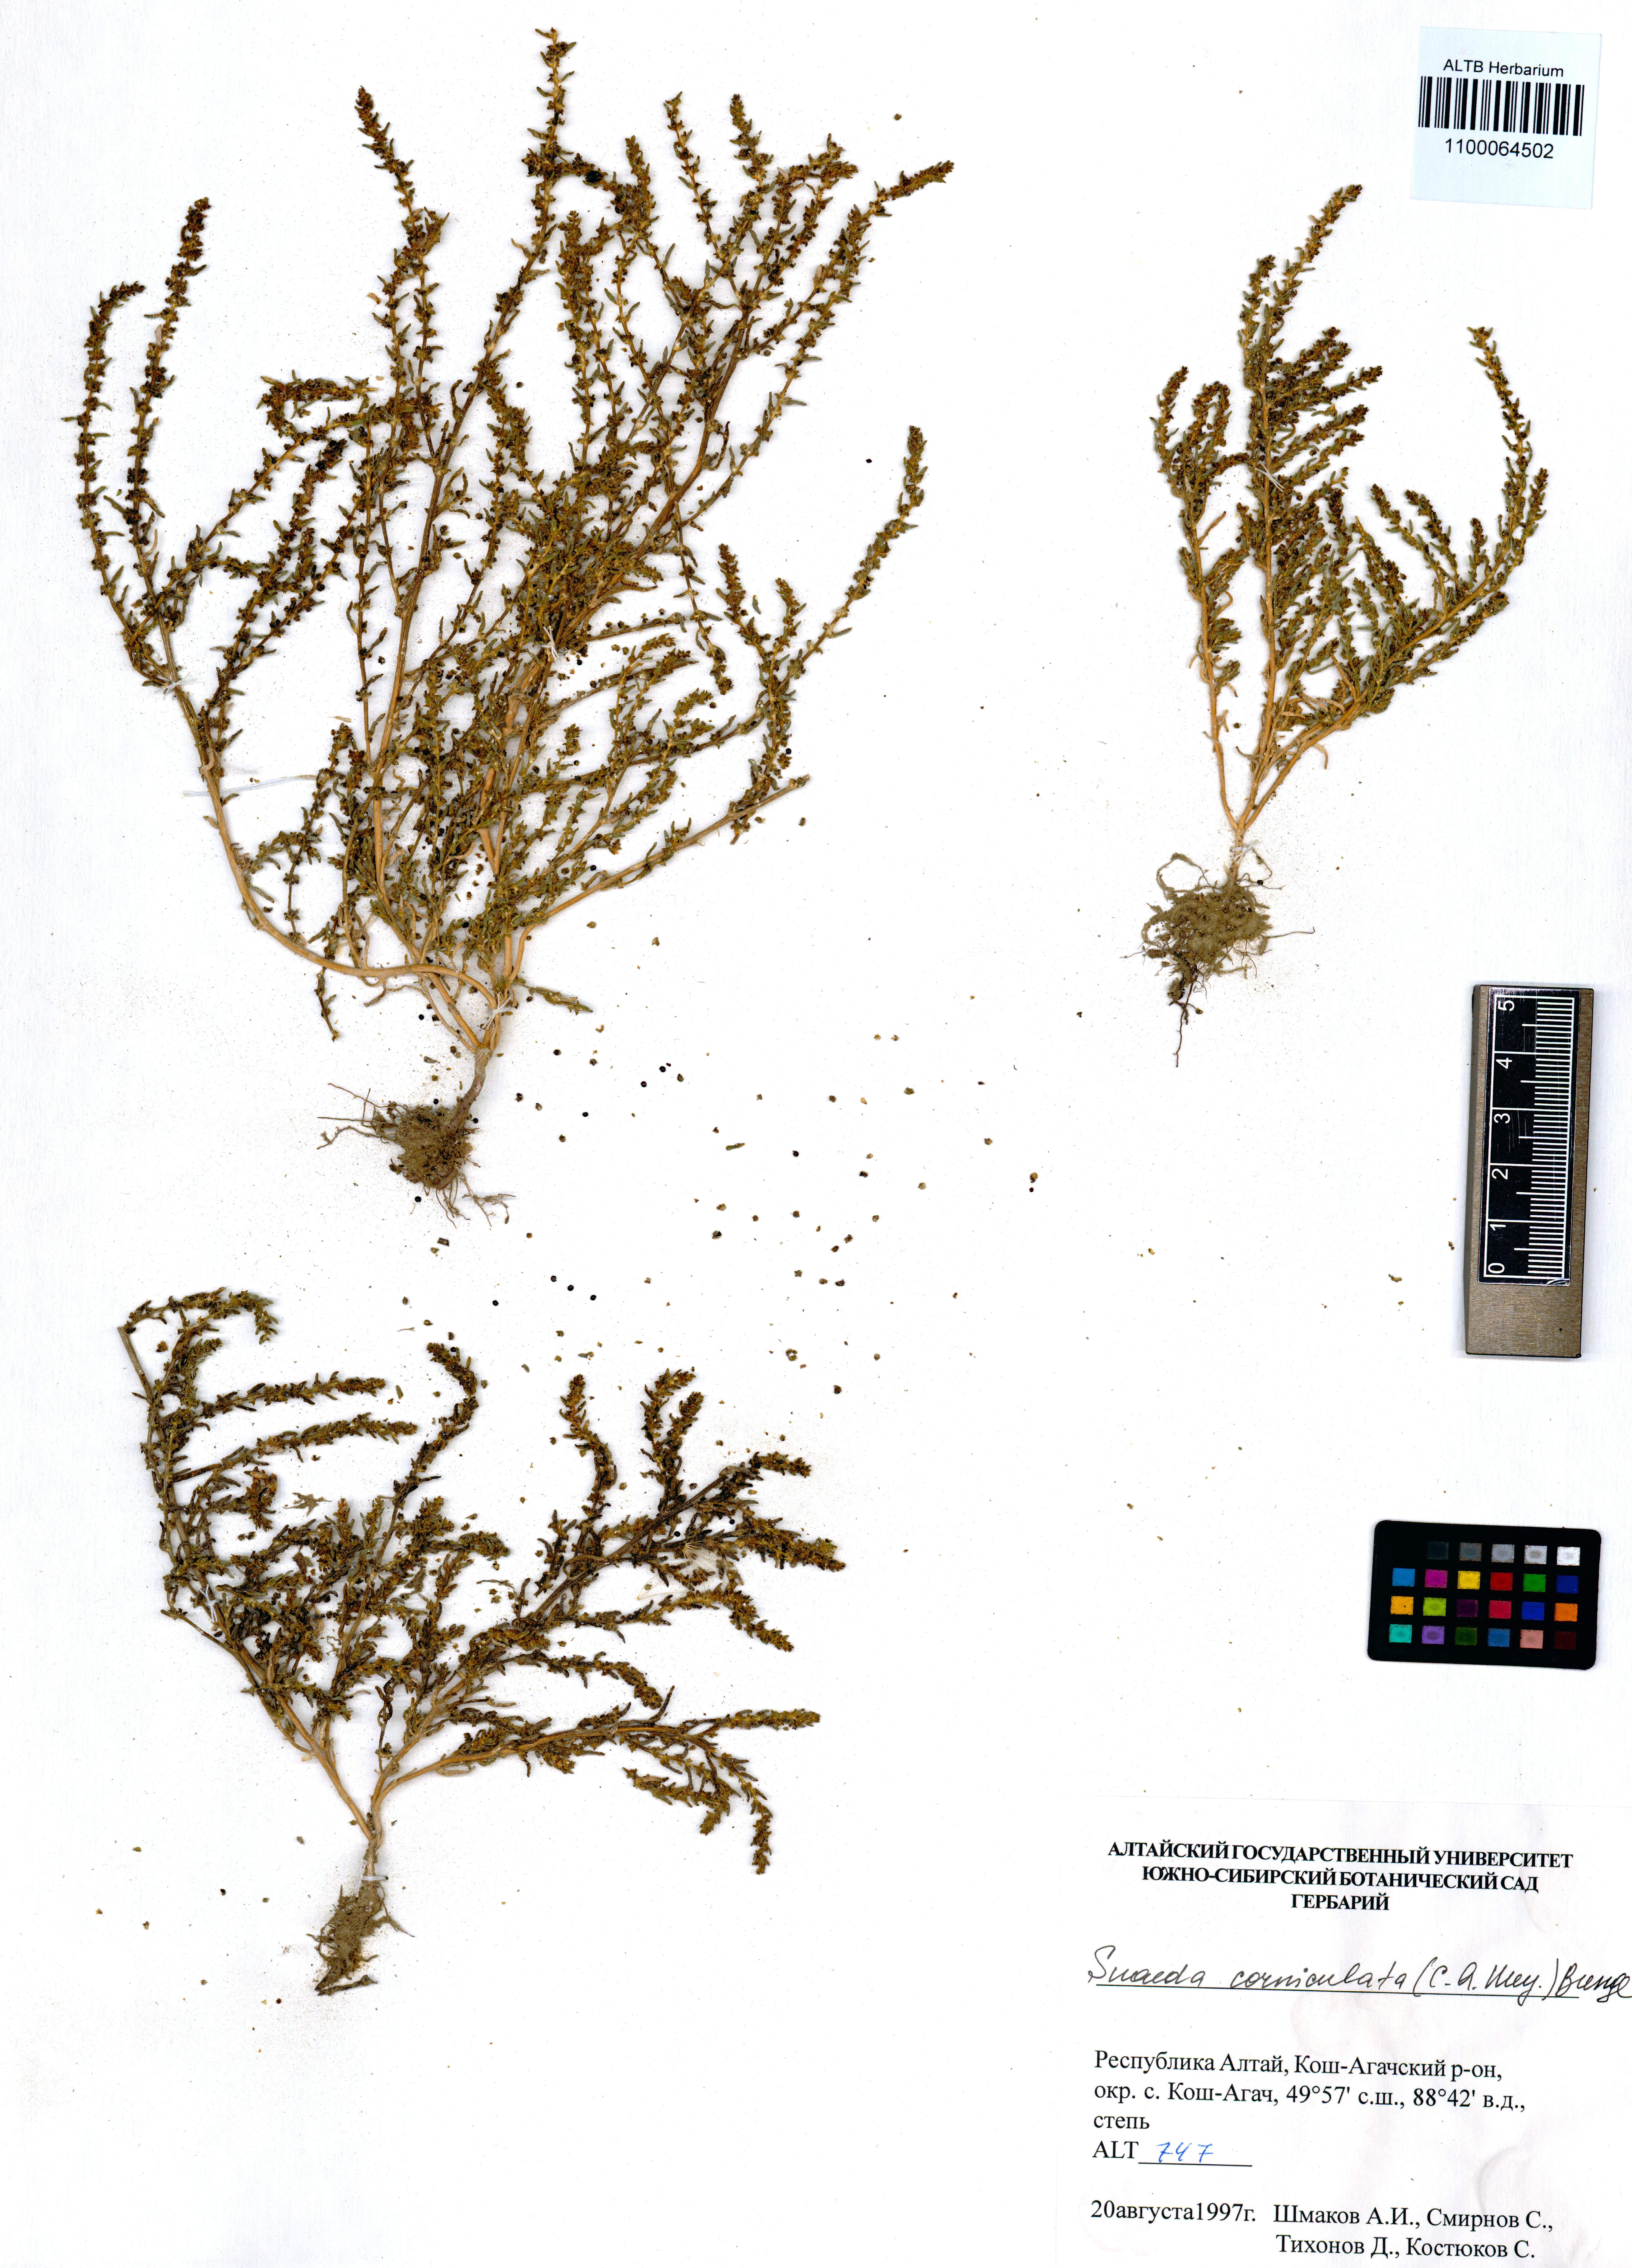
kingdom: Plantae
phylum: Tracheophyta
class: Magnoliopsida
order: Caryophyllales
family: Amaranthaceae
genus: Suaeda
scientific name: Suaeda corniculata
